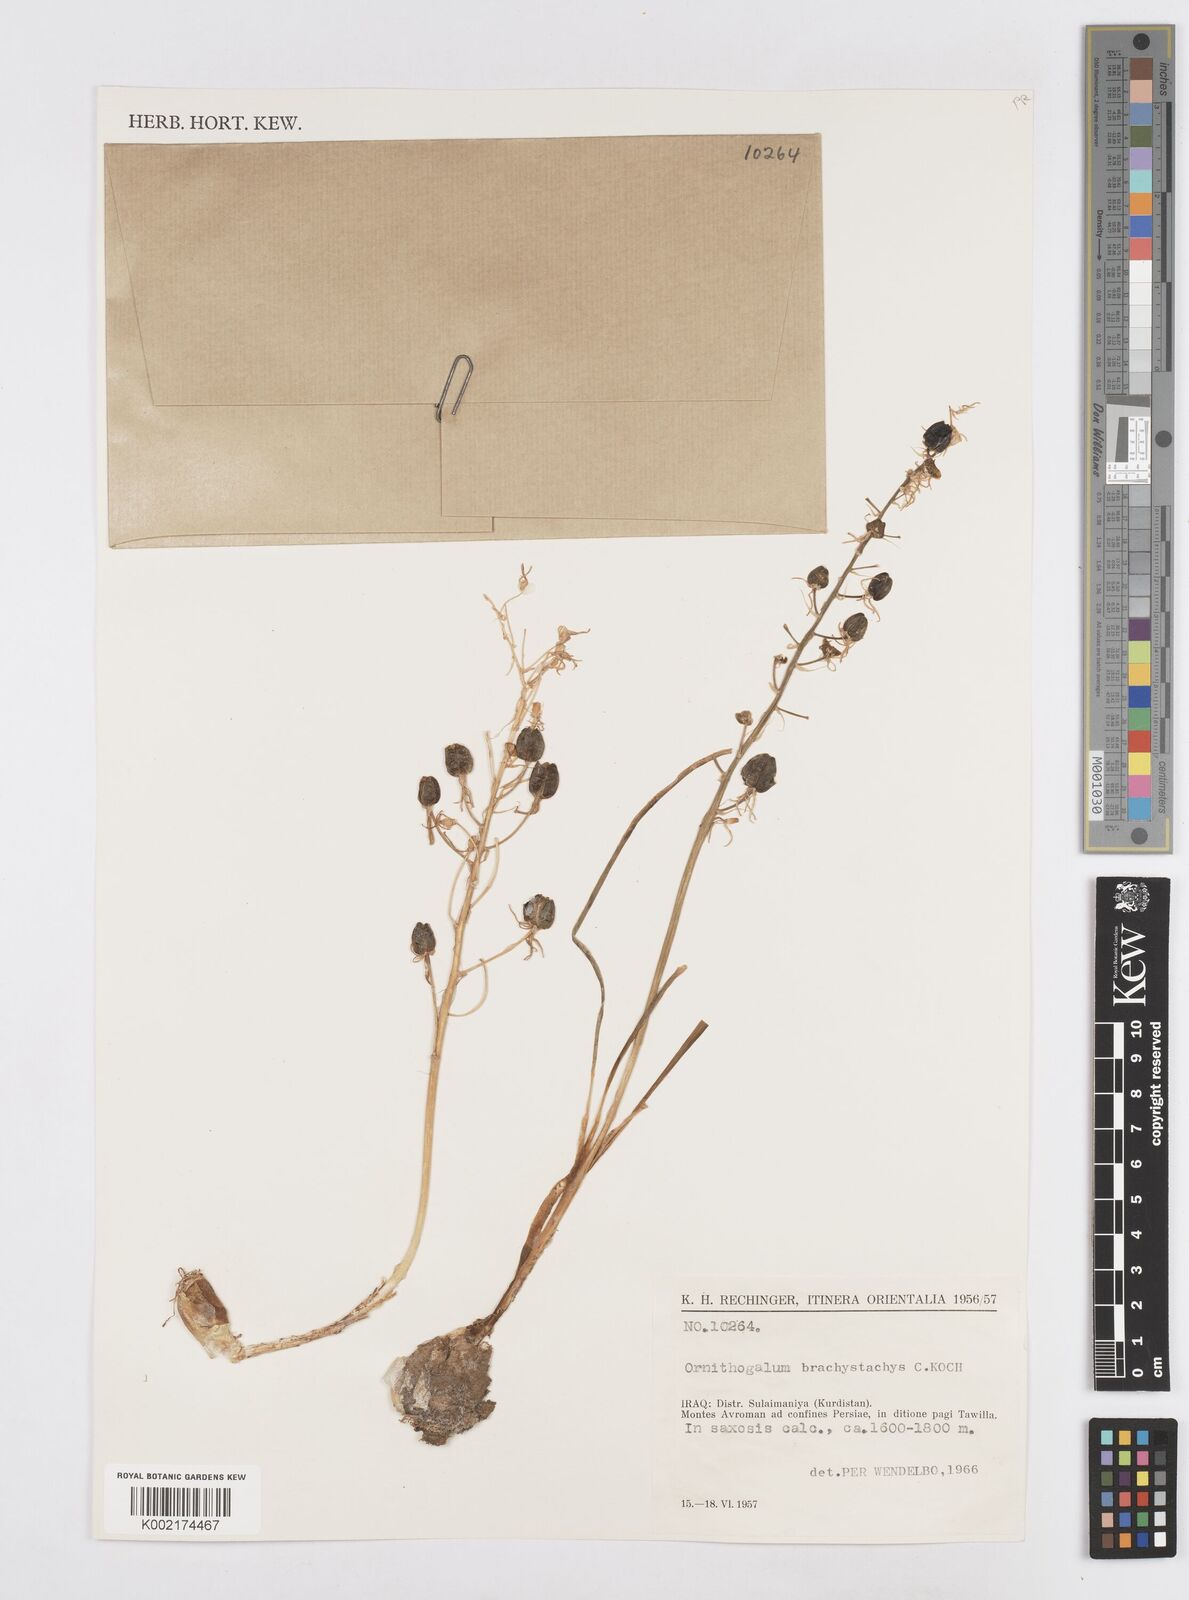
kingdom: Plantae
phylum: Tracheophyta
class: Liliopsida
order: Asparagales
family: Asparagaceae
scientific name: Asparagaceae
